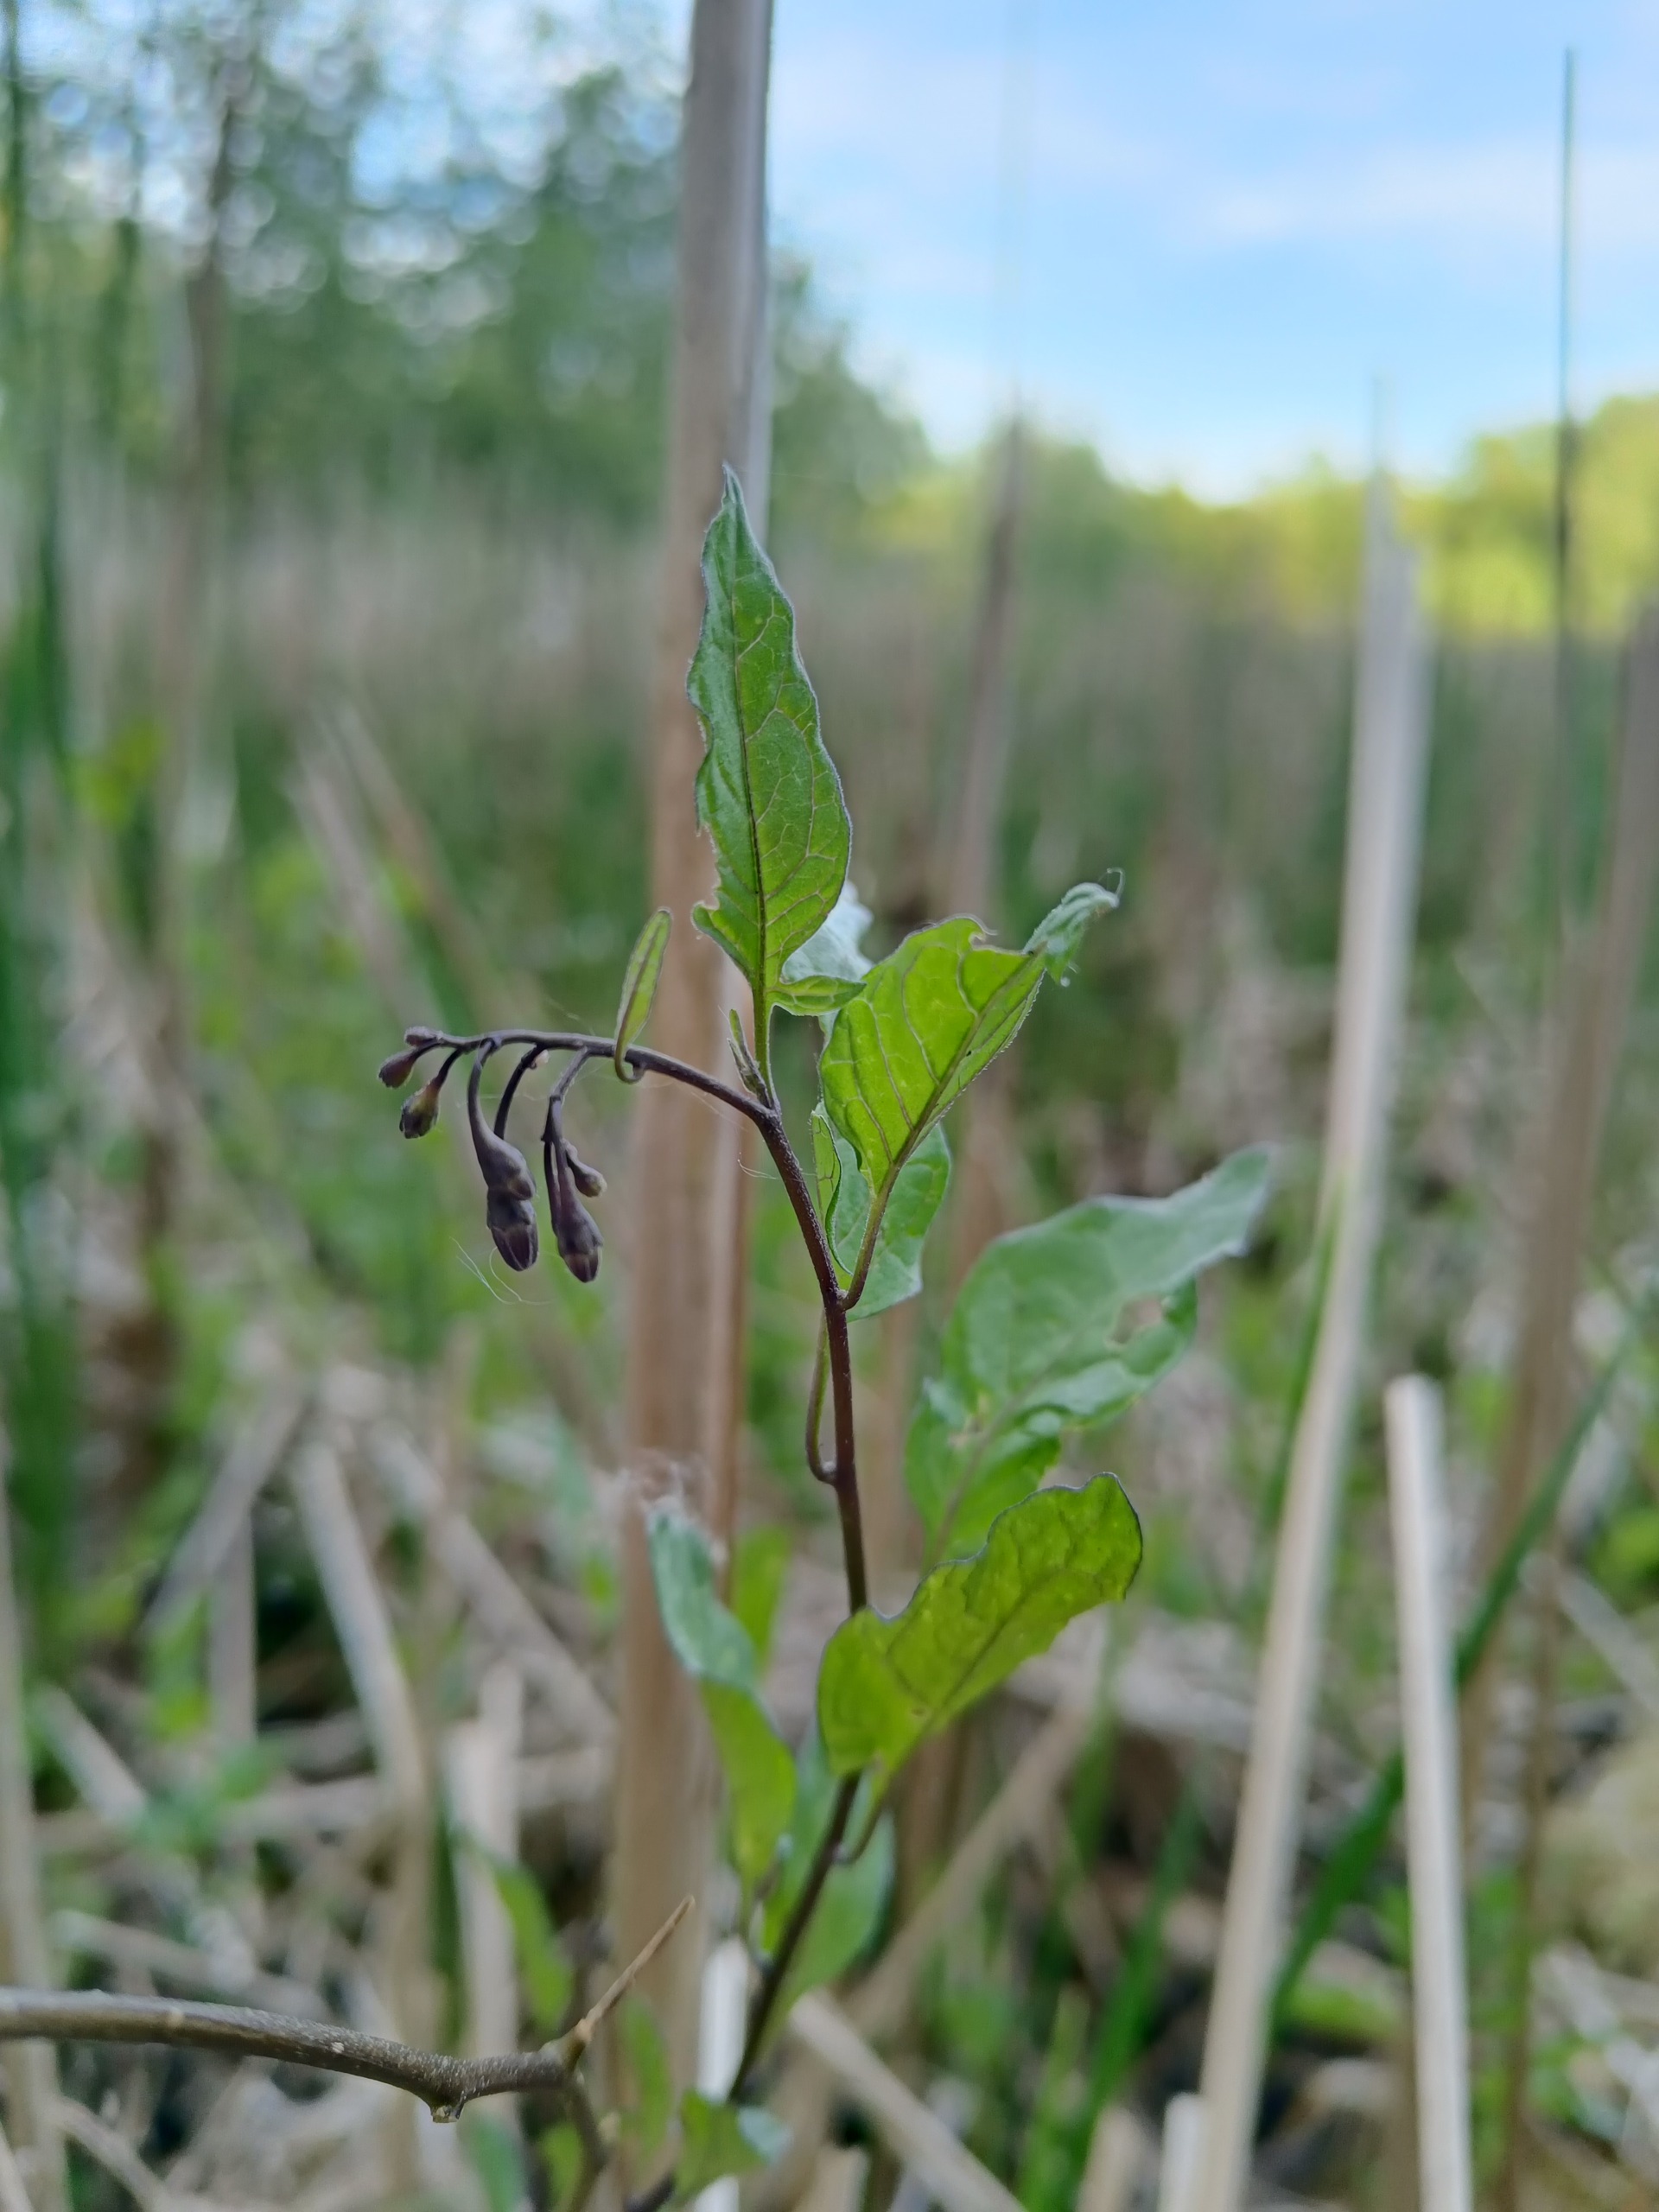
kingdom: Plantae
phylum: Tracheophyta
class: Magnoliopsida
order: Solanales
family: Solanaceae
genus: Solanum
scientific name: Solanum dulcamara
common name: Bittersød natskygge
